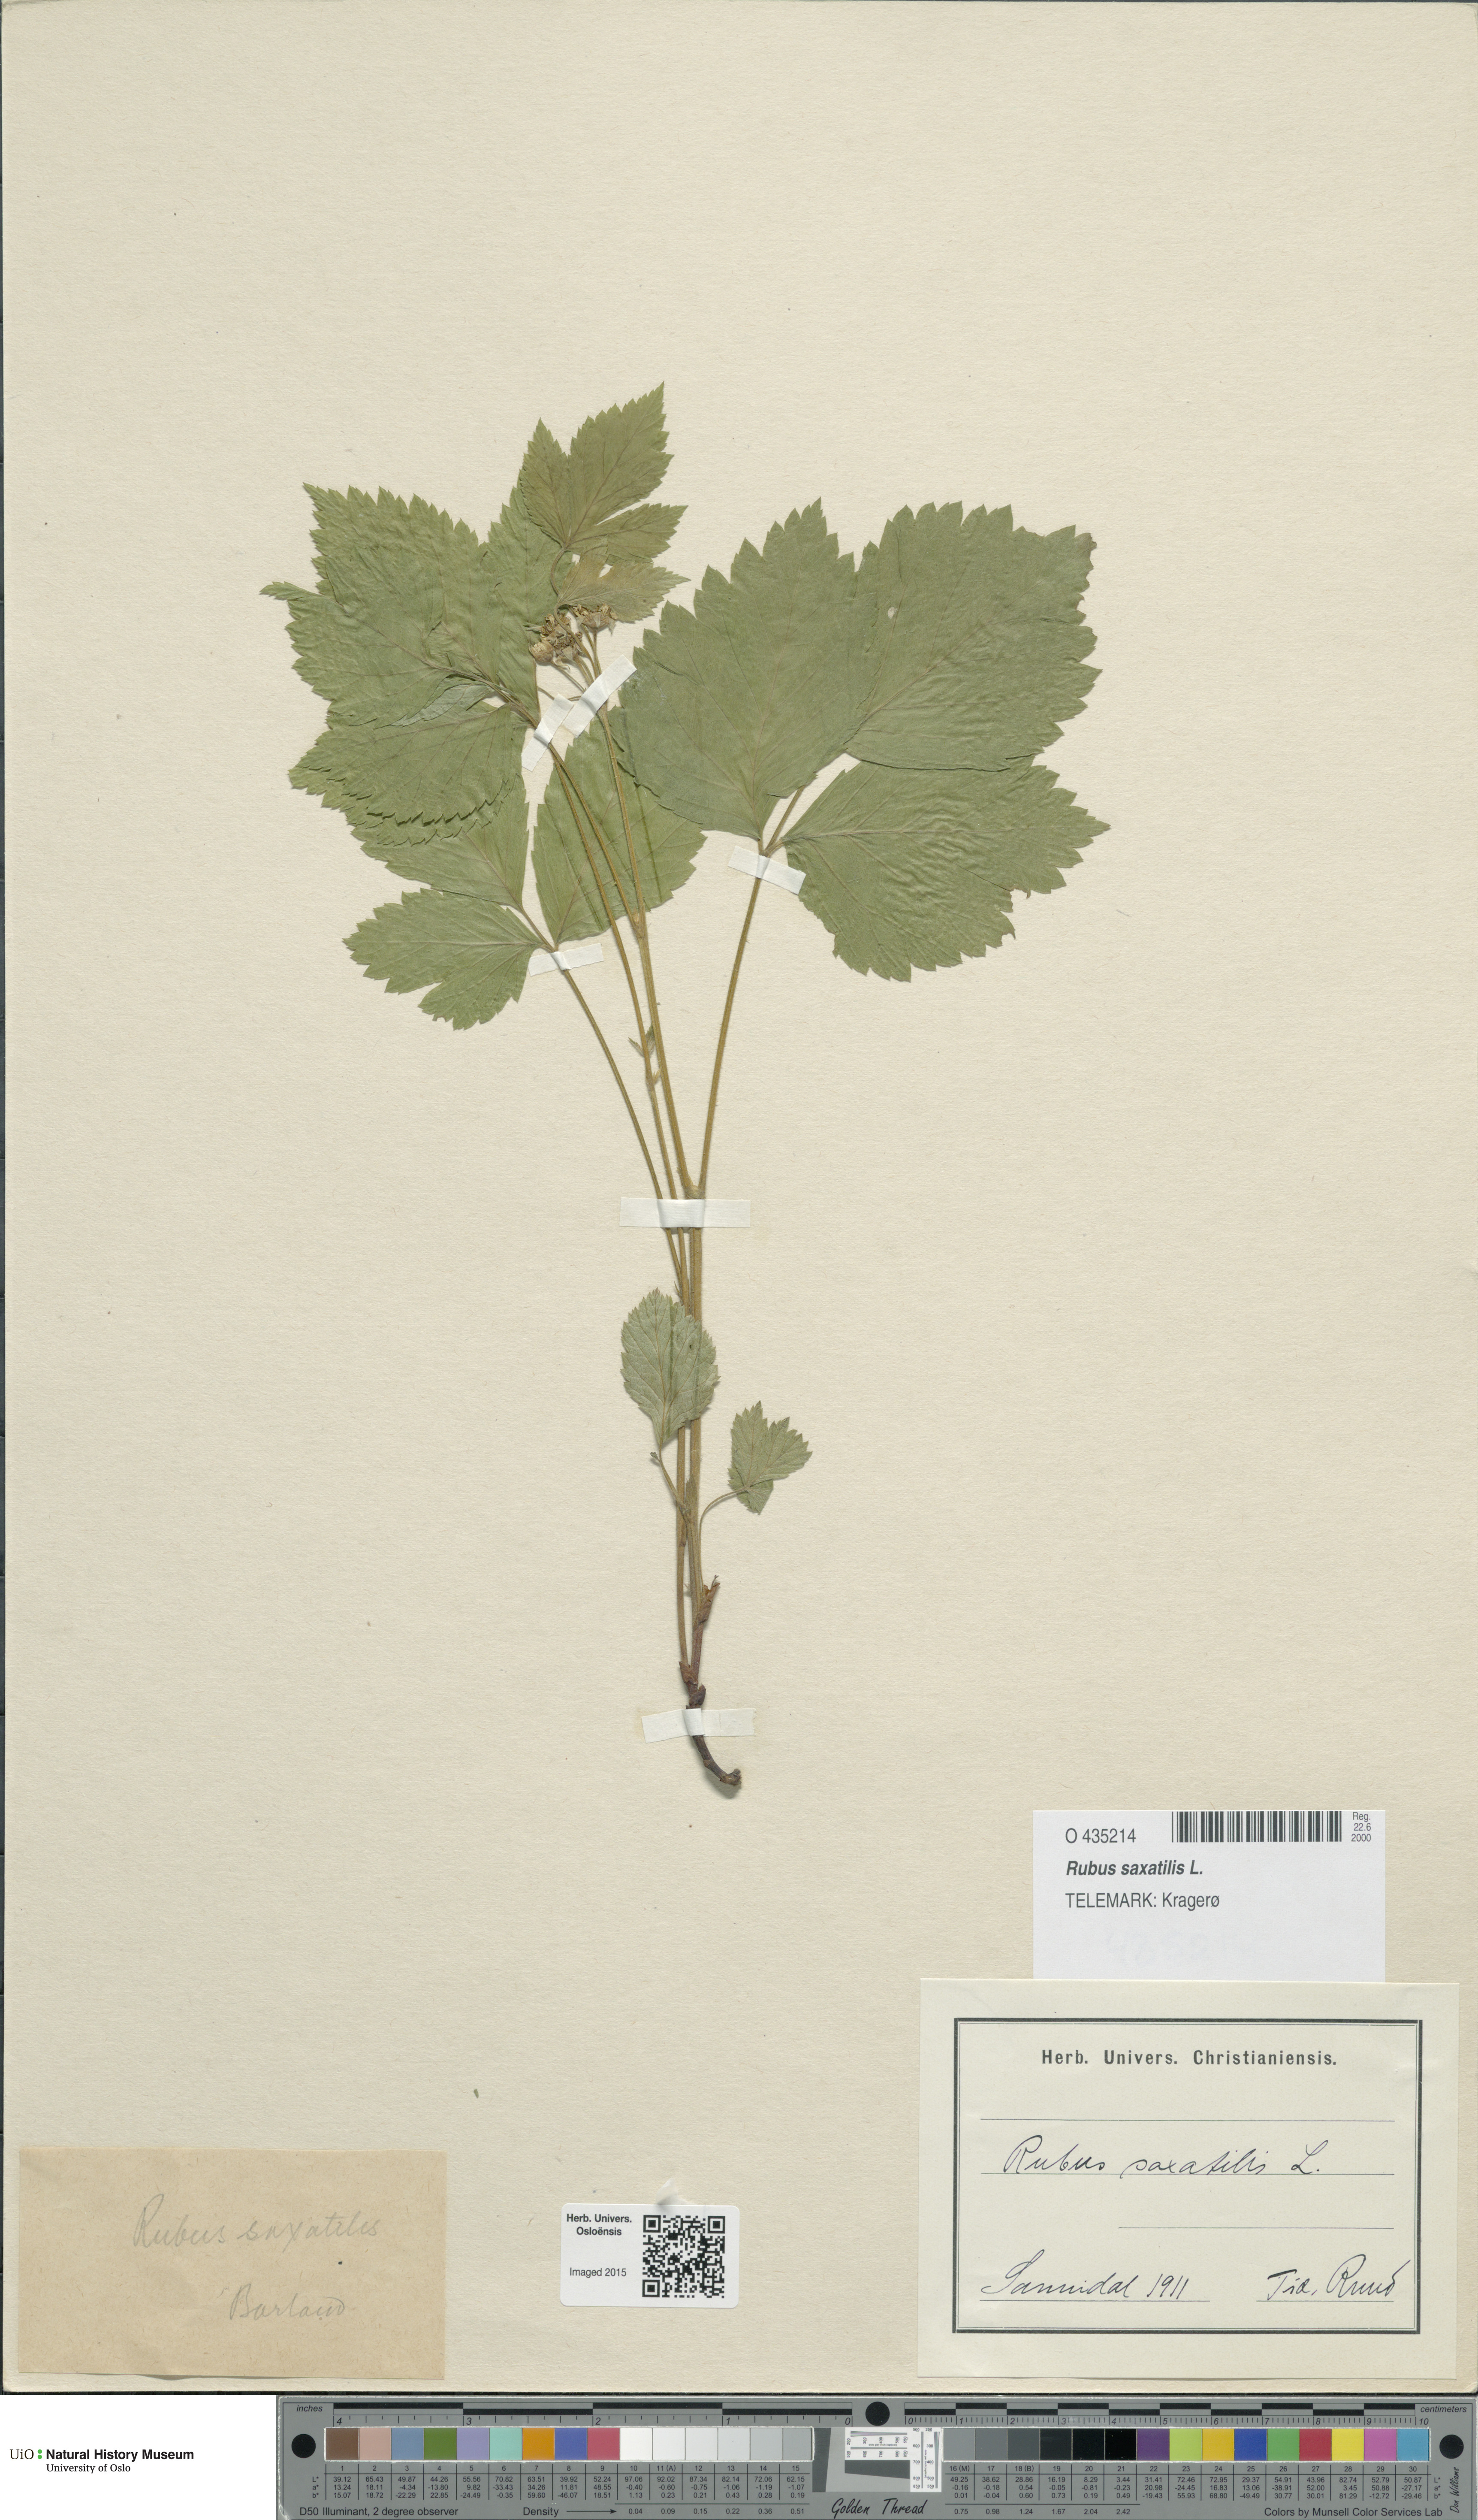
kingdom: Plantae
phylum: Tracheophyta
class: Magnoliopsida
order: Rosales
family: Rosaceae
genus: Rubus
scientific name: Rubus saxatilis
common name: Stone bramble
